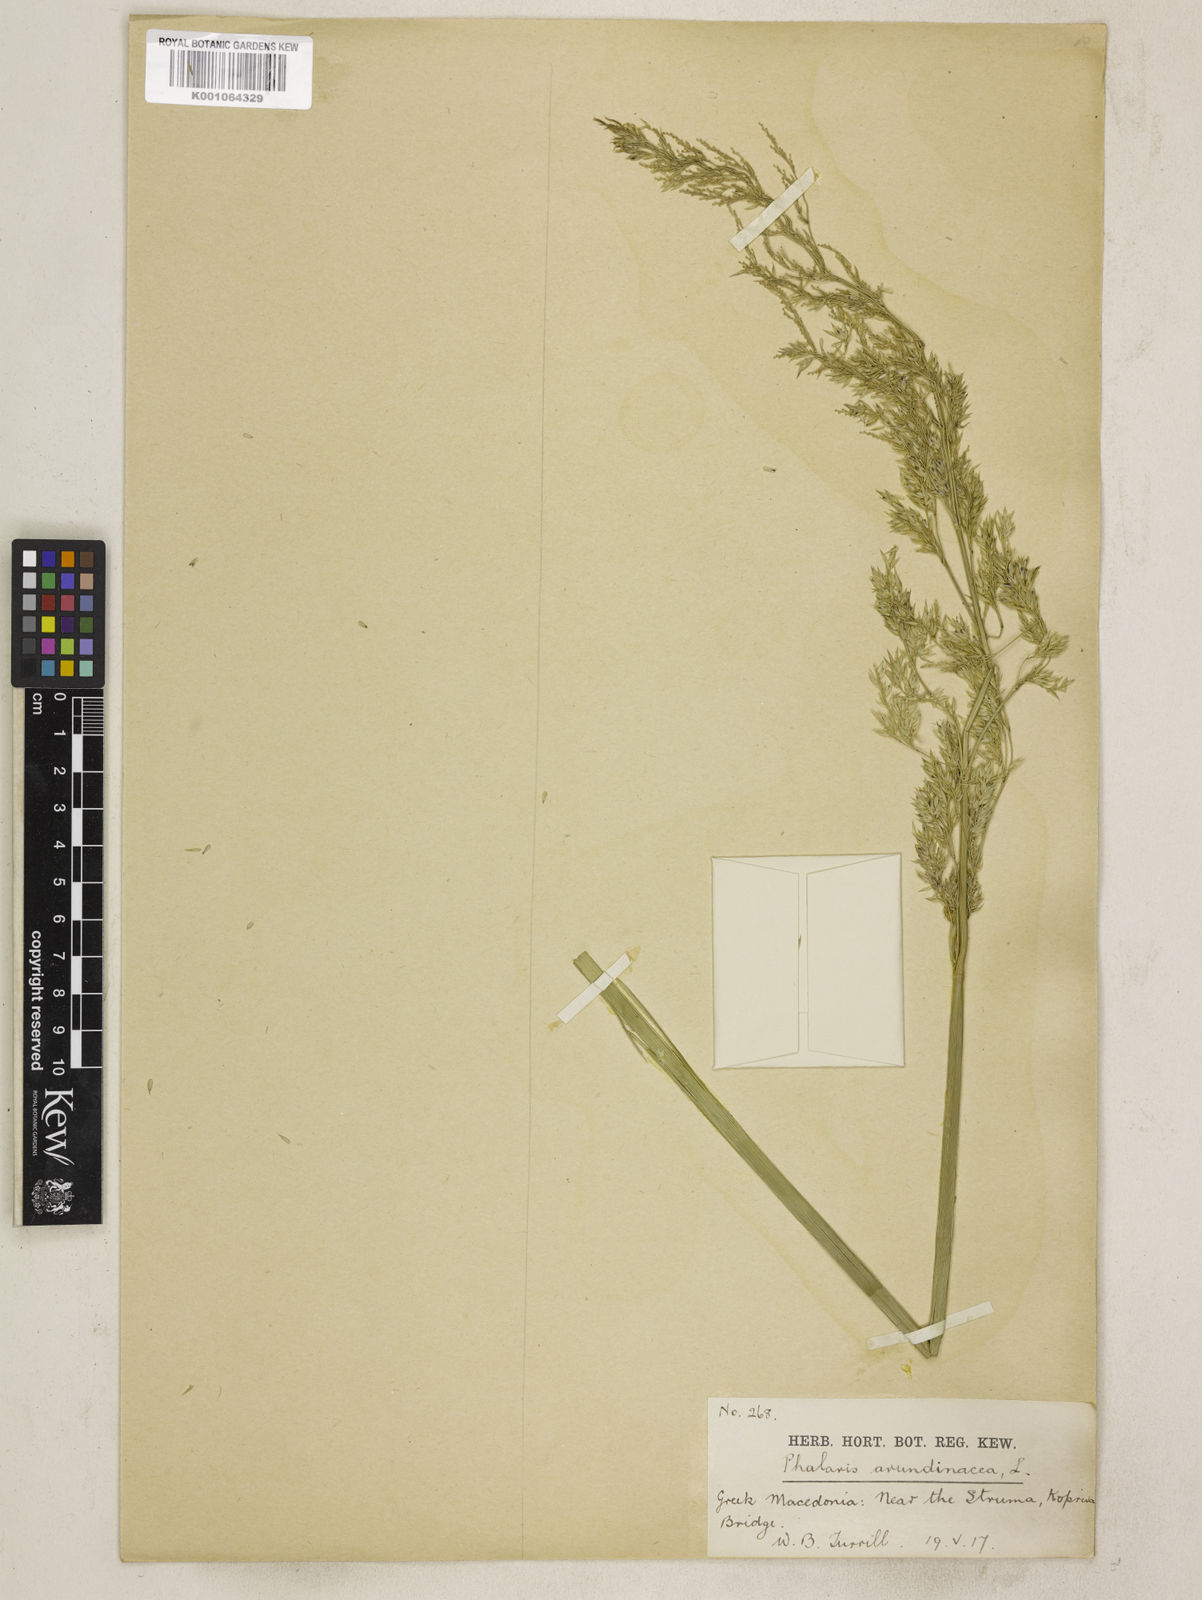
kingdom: Plantae
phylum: Tracheophyta
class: Liliopsida
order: Poales
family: Poaceae
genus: Phalaris
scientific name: Phalaris arundinacea
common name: Reed canary-grass
